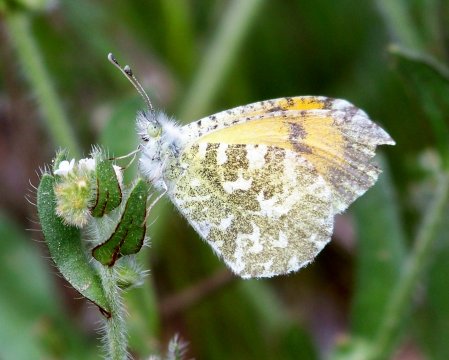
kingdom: Animalia
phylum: Arthropoda
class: Insecta
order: Lepidoptera
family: Pieridae
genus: Anthocharis
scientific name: Anthocharis cethura
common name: Desert Orangetip
